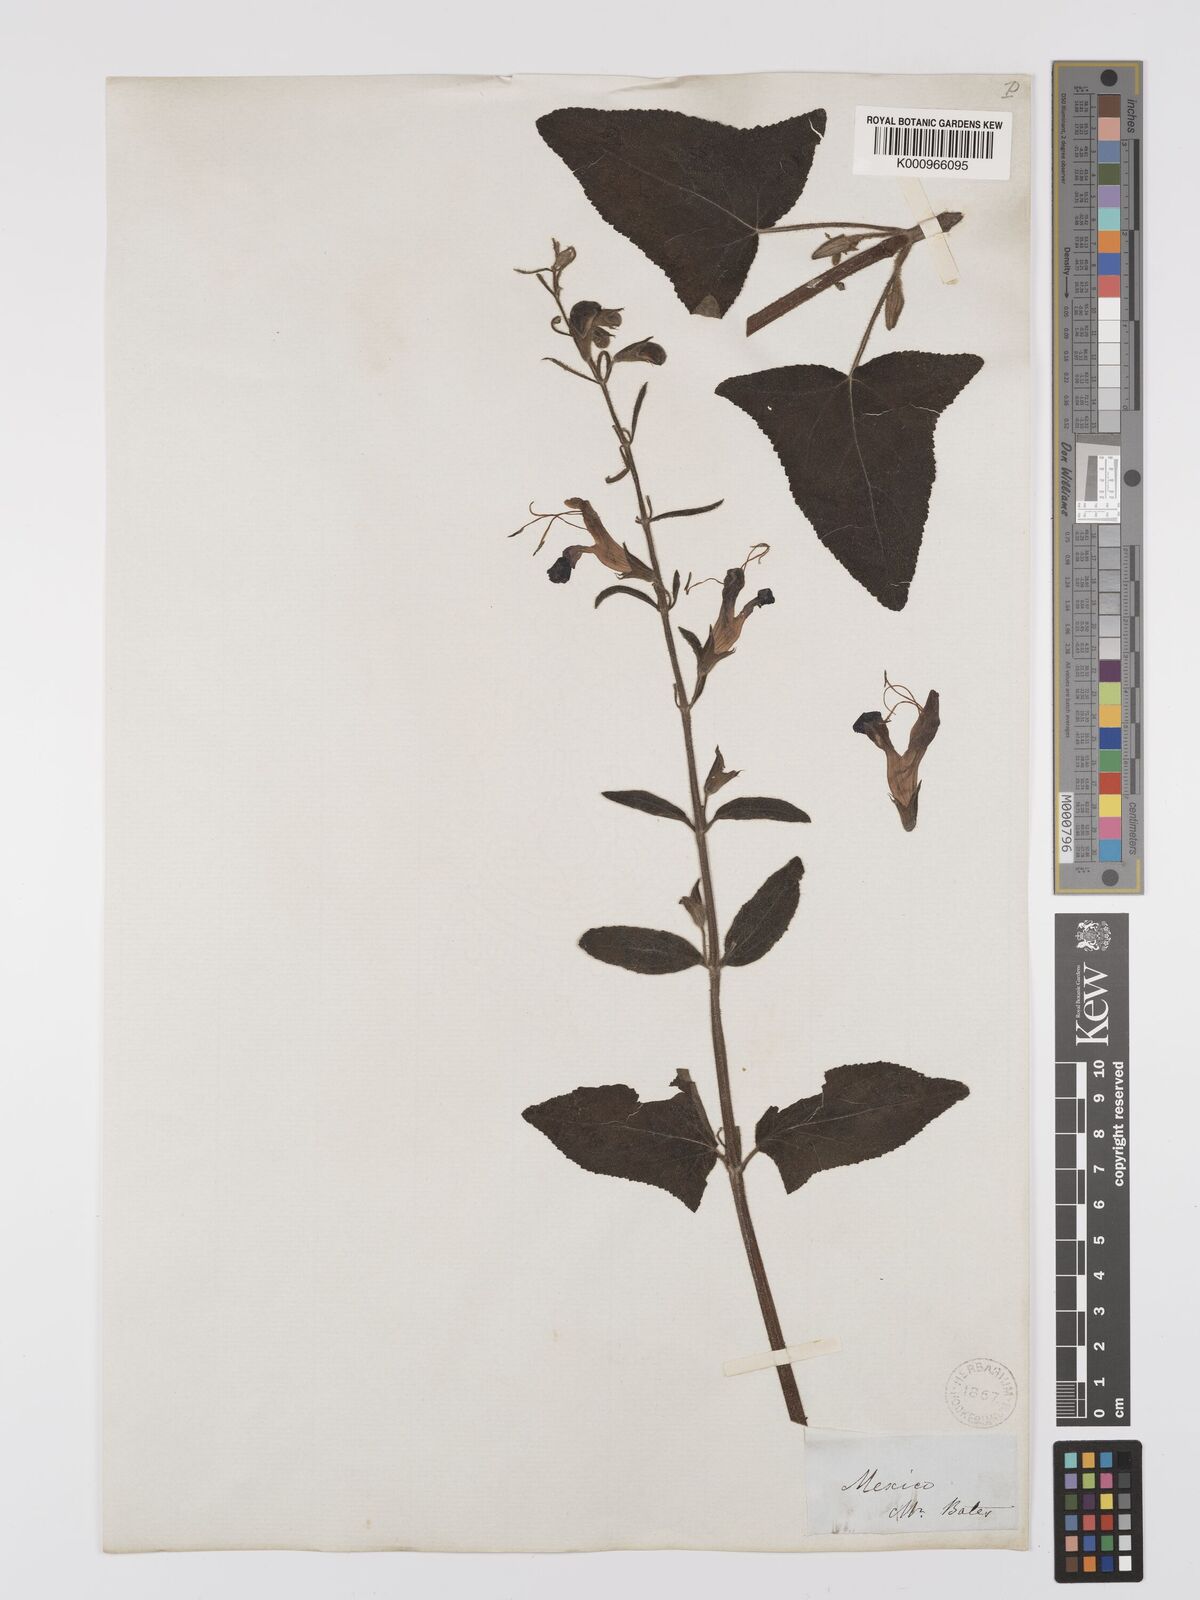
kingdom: Plantae
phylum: Tracheophyta
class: Magnoliopsida
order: Lamiales
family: Lamiaceae
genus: Salvia
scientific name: Salvia
